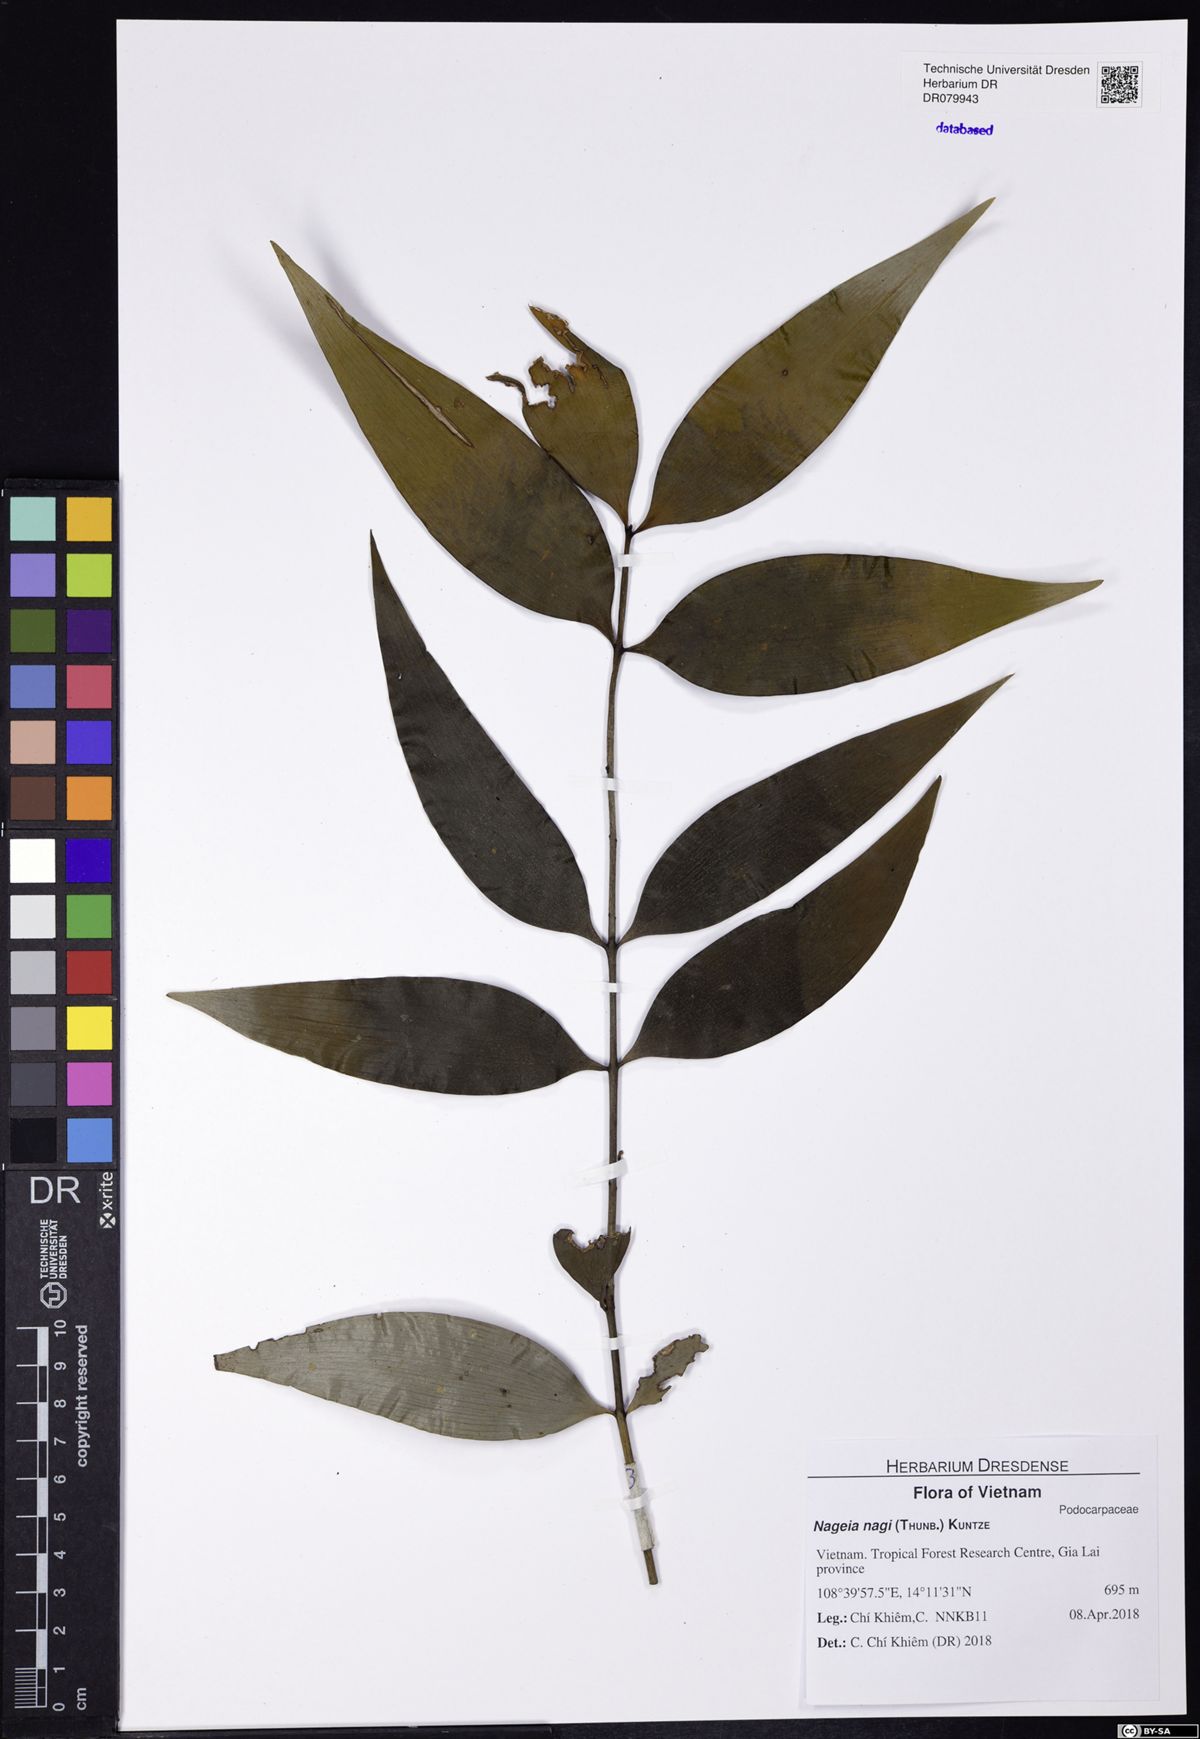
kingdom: Plantae
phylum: Tracheophyta
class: Pinopsida
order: Pinales
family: Podocarpaceae
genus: Nageia
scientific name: Nageia nagi
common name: Kaphal
